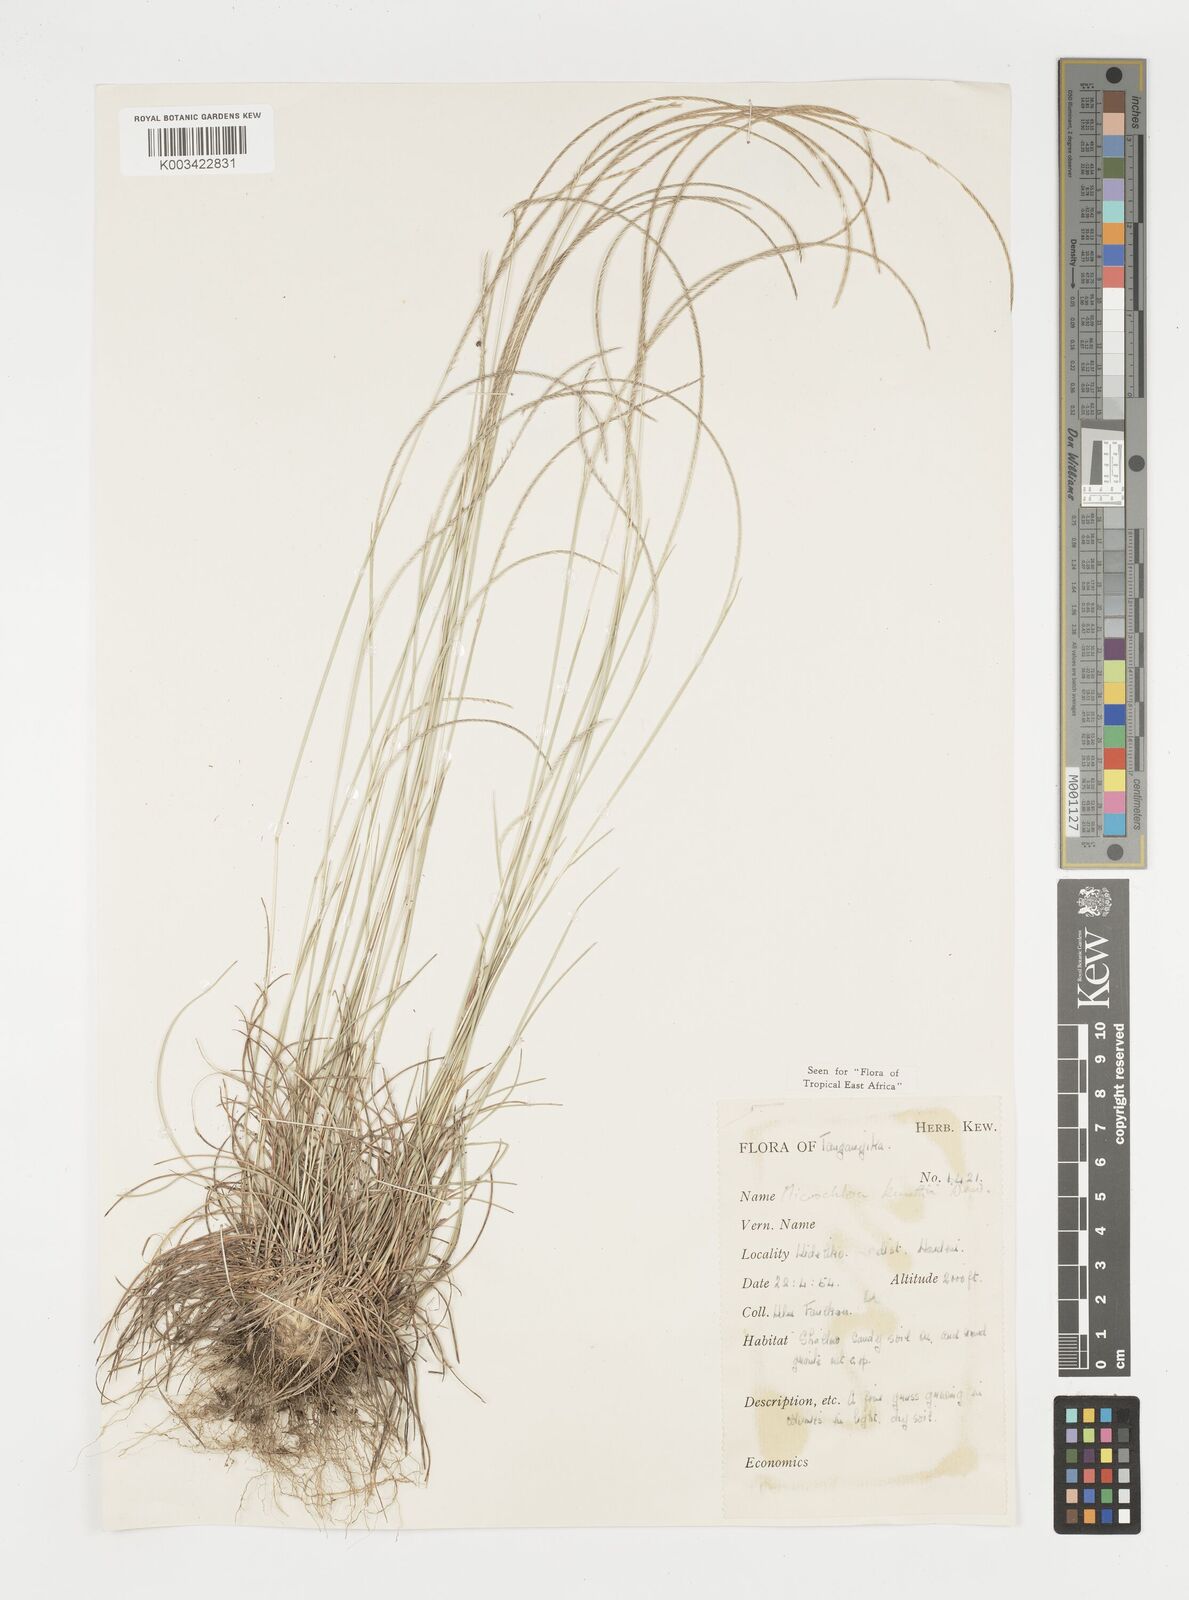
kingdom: Plantae
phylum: Tracheophyta
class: Liliopsida
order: Poales
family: Poaceae
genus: Microchloa
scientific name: Microchloa kunthii
